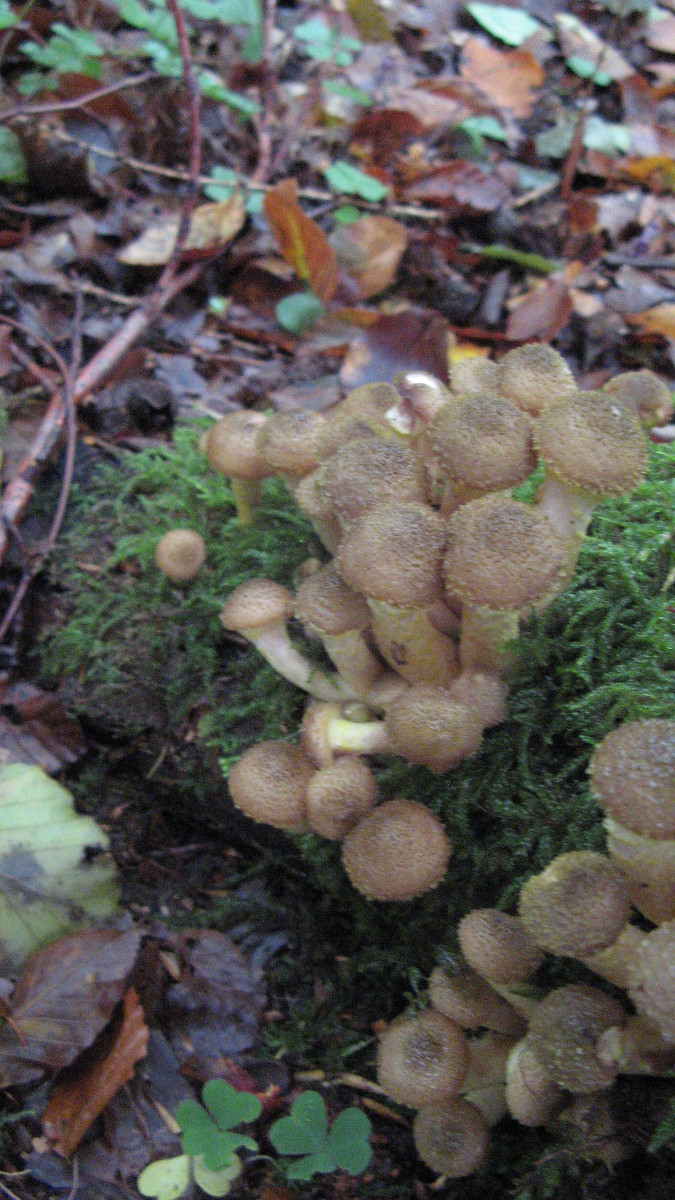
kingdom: Fungi
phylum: Basidiomycota
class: Agaricomycetes
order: Agaricales
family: Physalacriaceae
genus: Armillaria
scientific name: Armillaria ostoyae
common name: mørk honningsvamp
